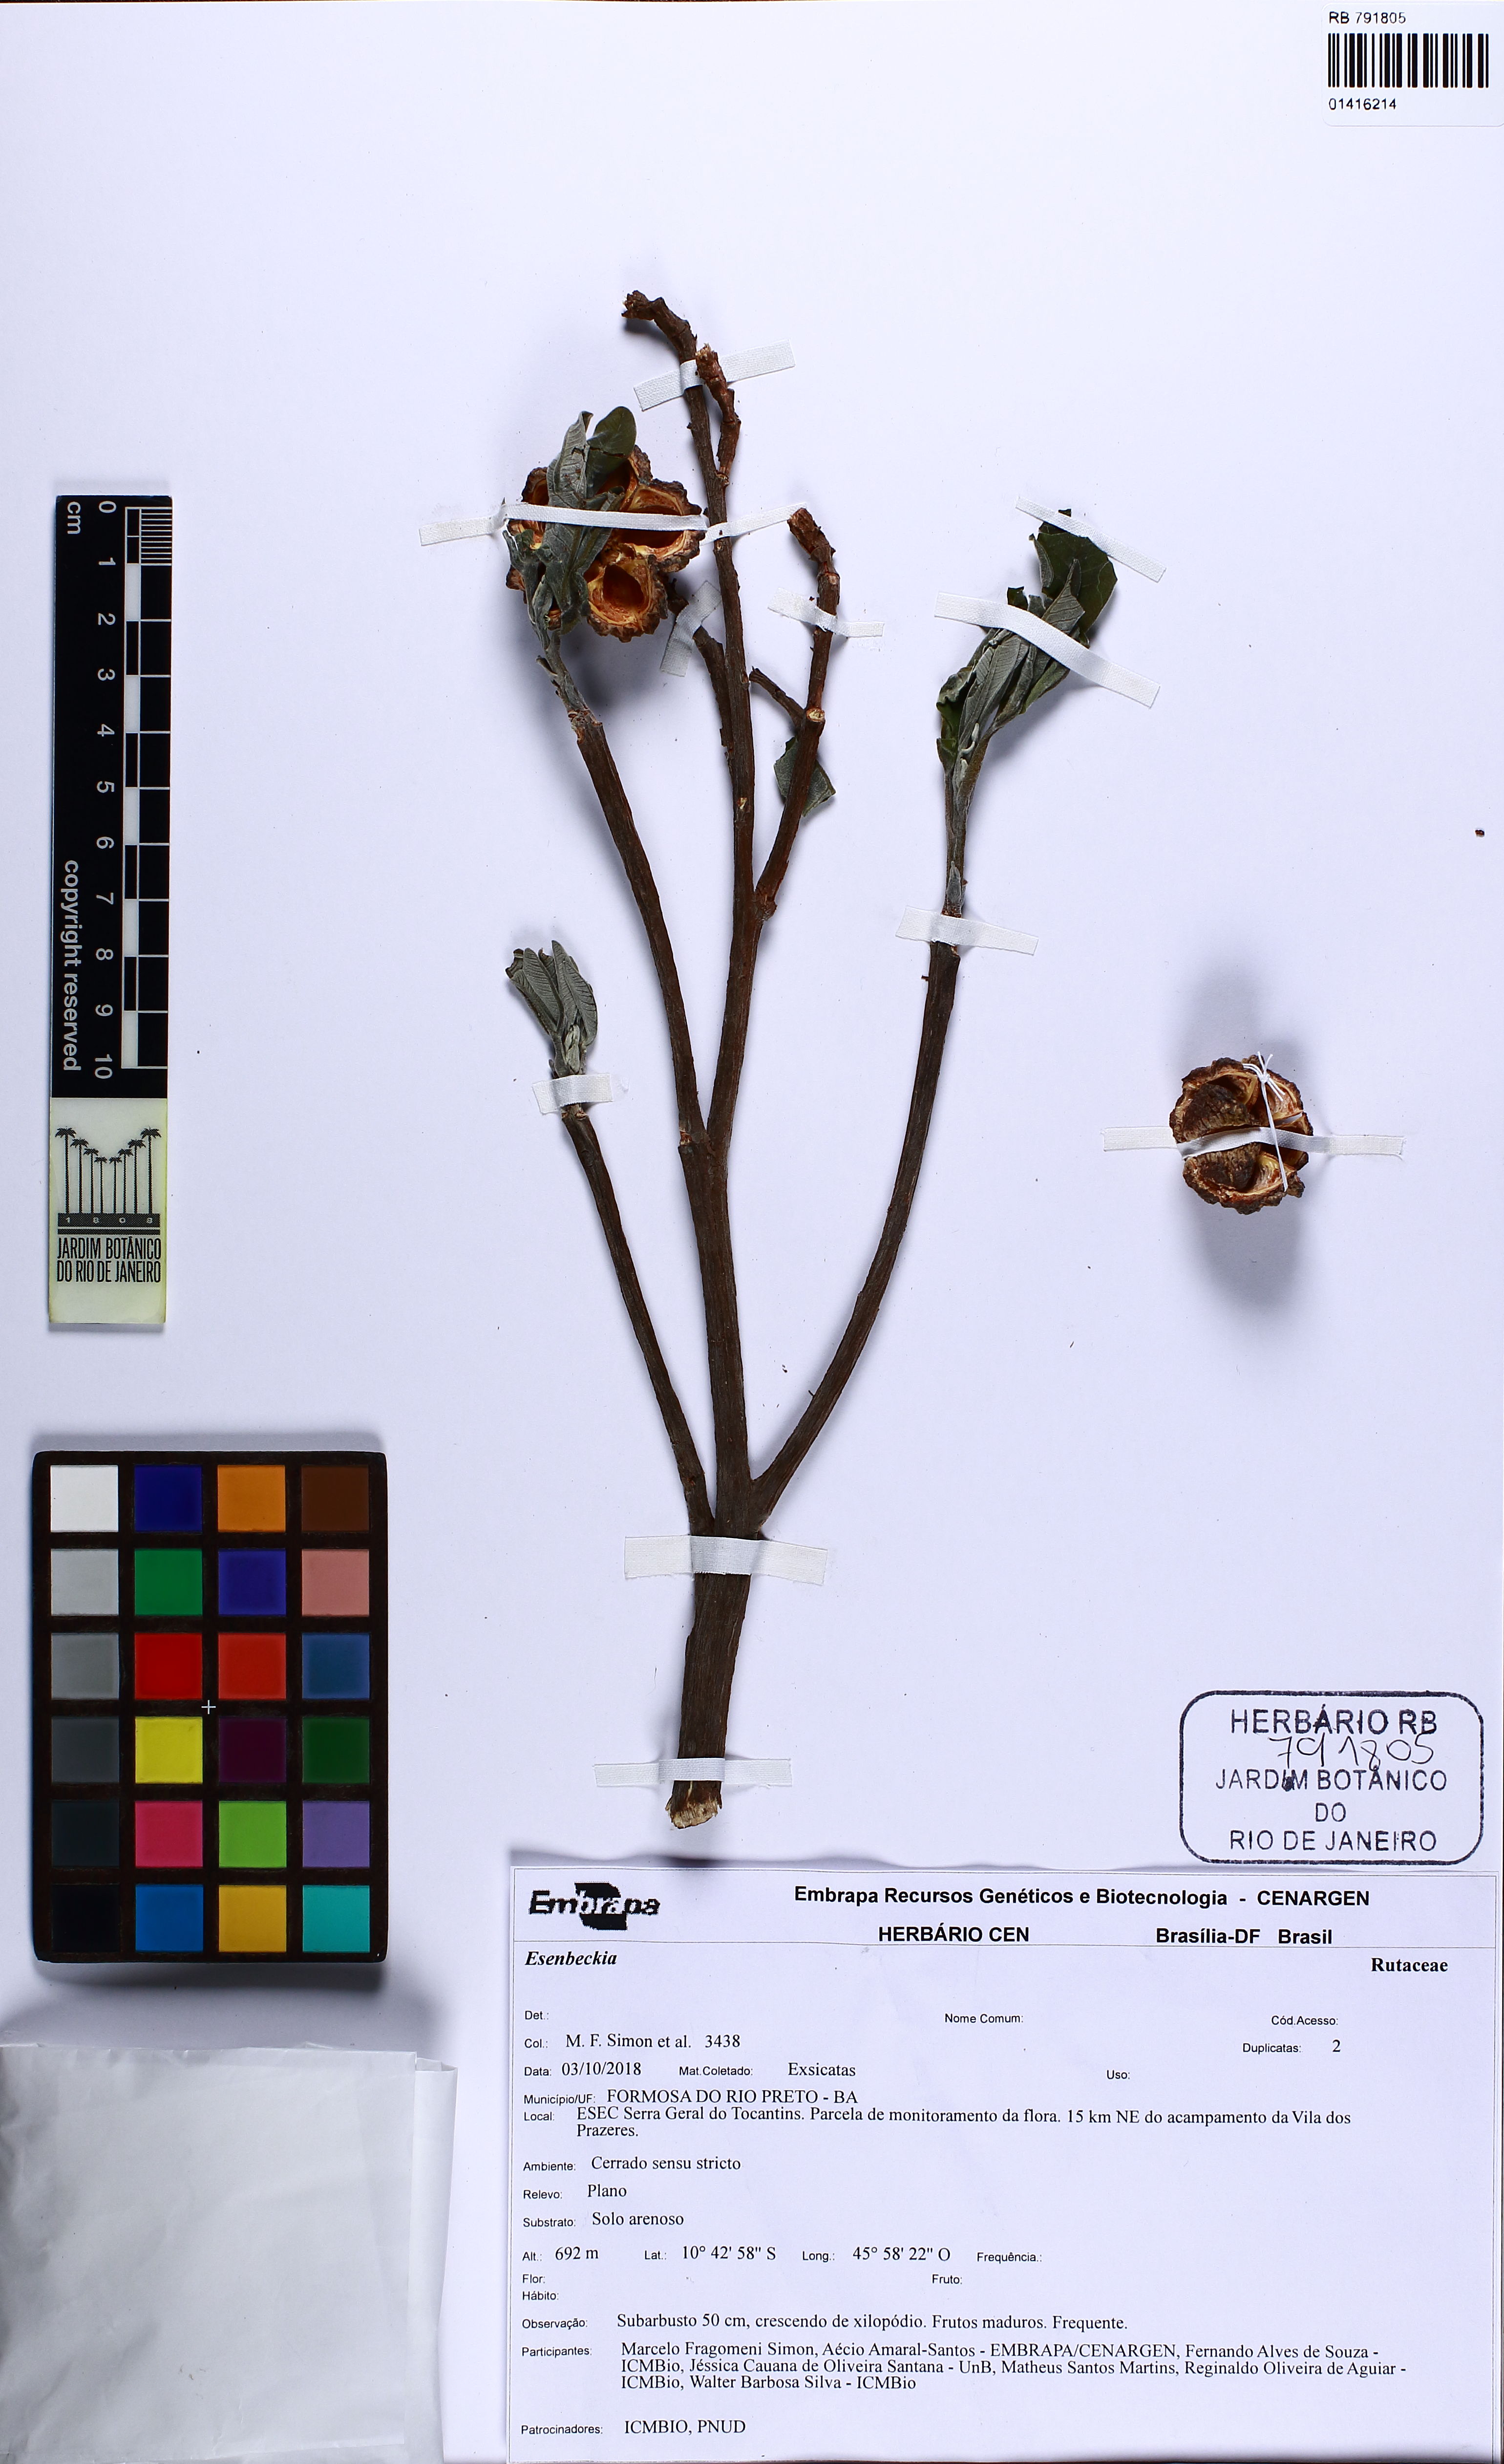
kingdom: Plantae
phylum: Tracheophyta
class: Magnoliopsida
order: Sapindales
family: Rutaceae
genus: Esenbeckia
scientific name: Esenbeckia
